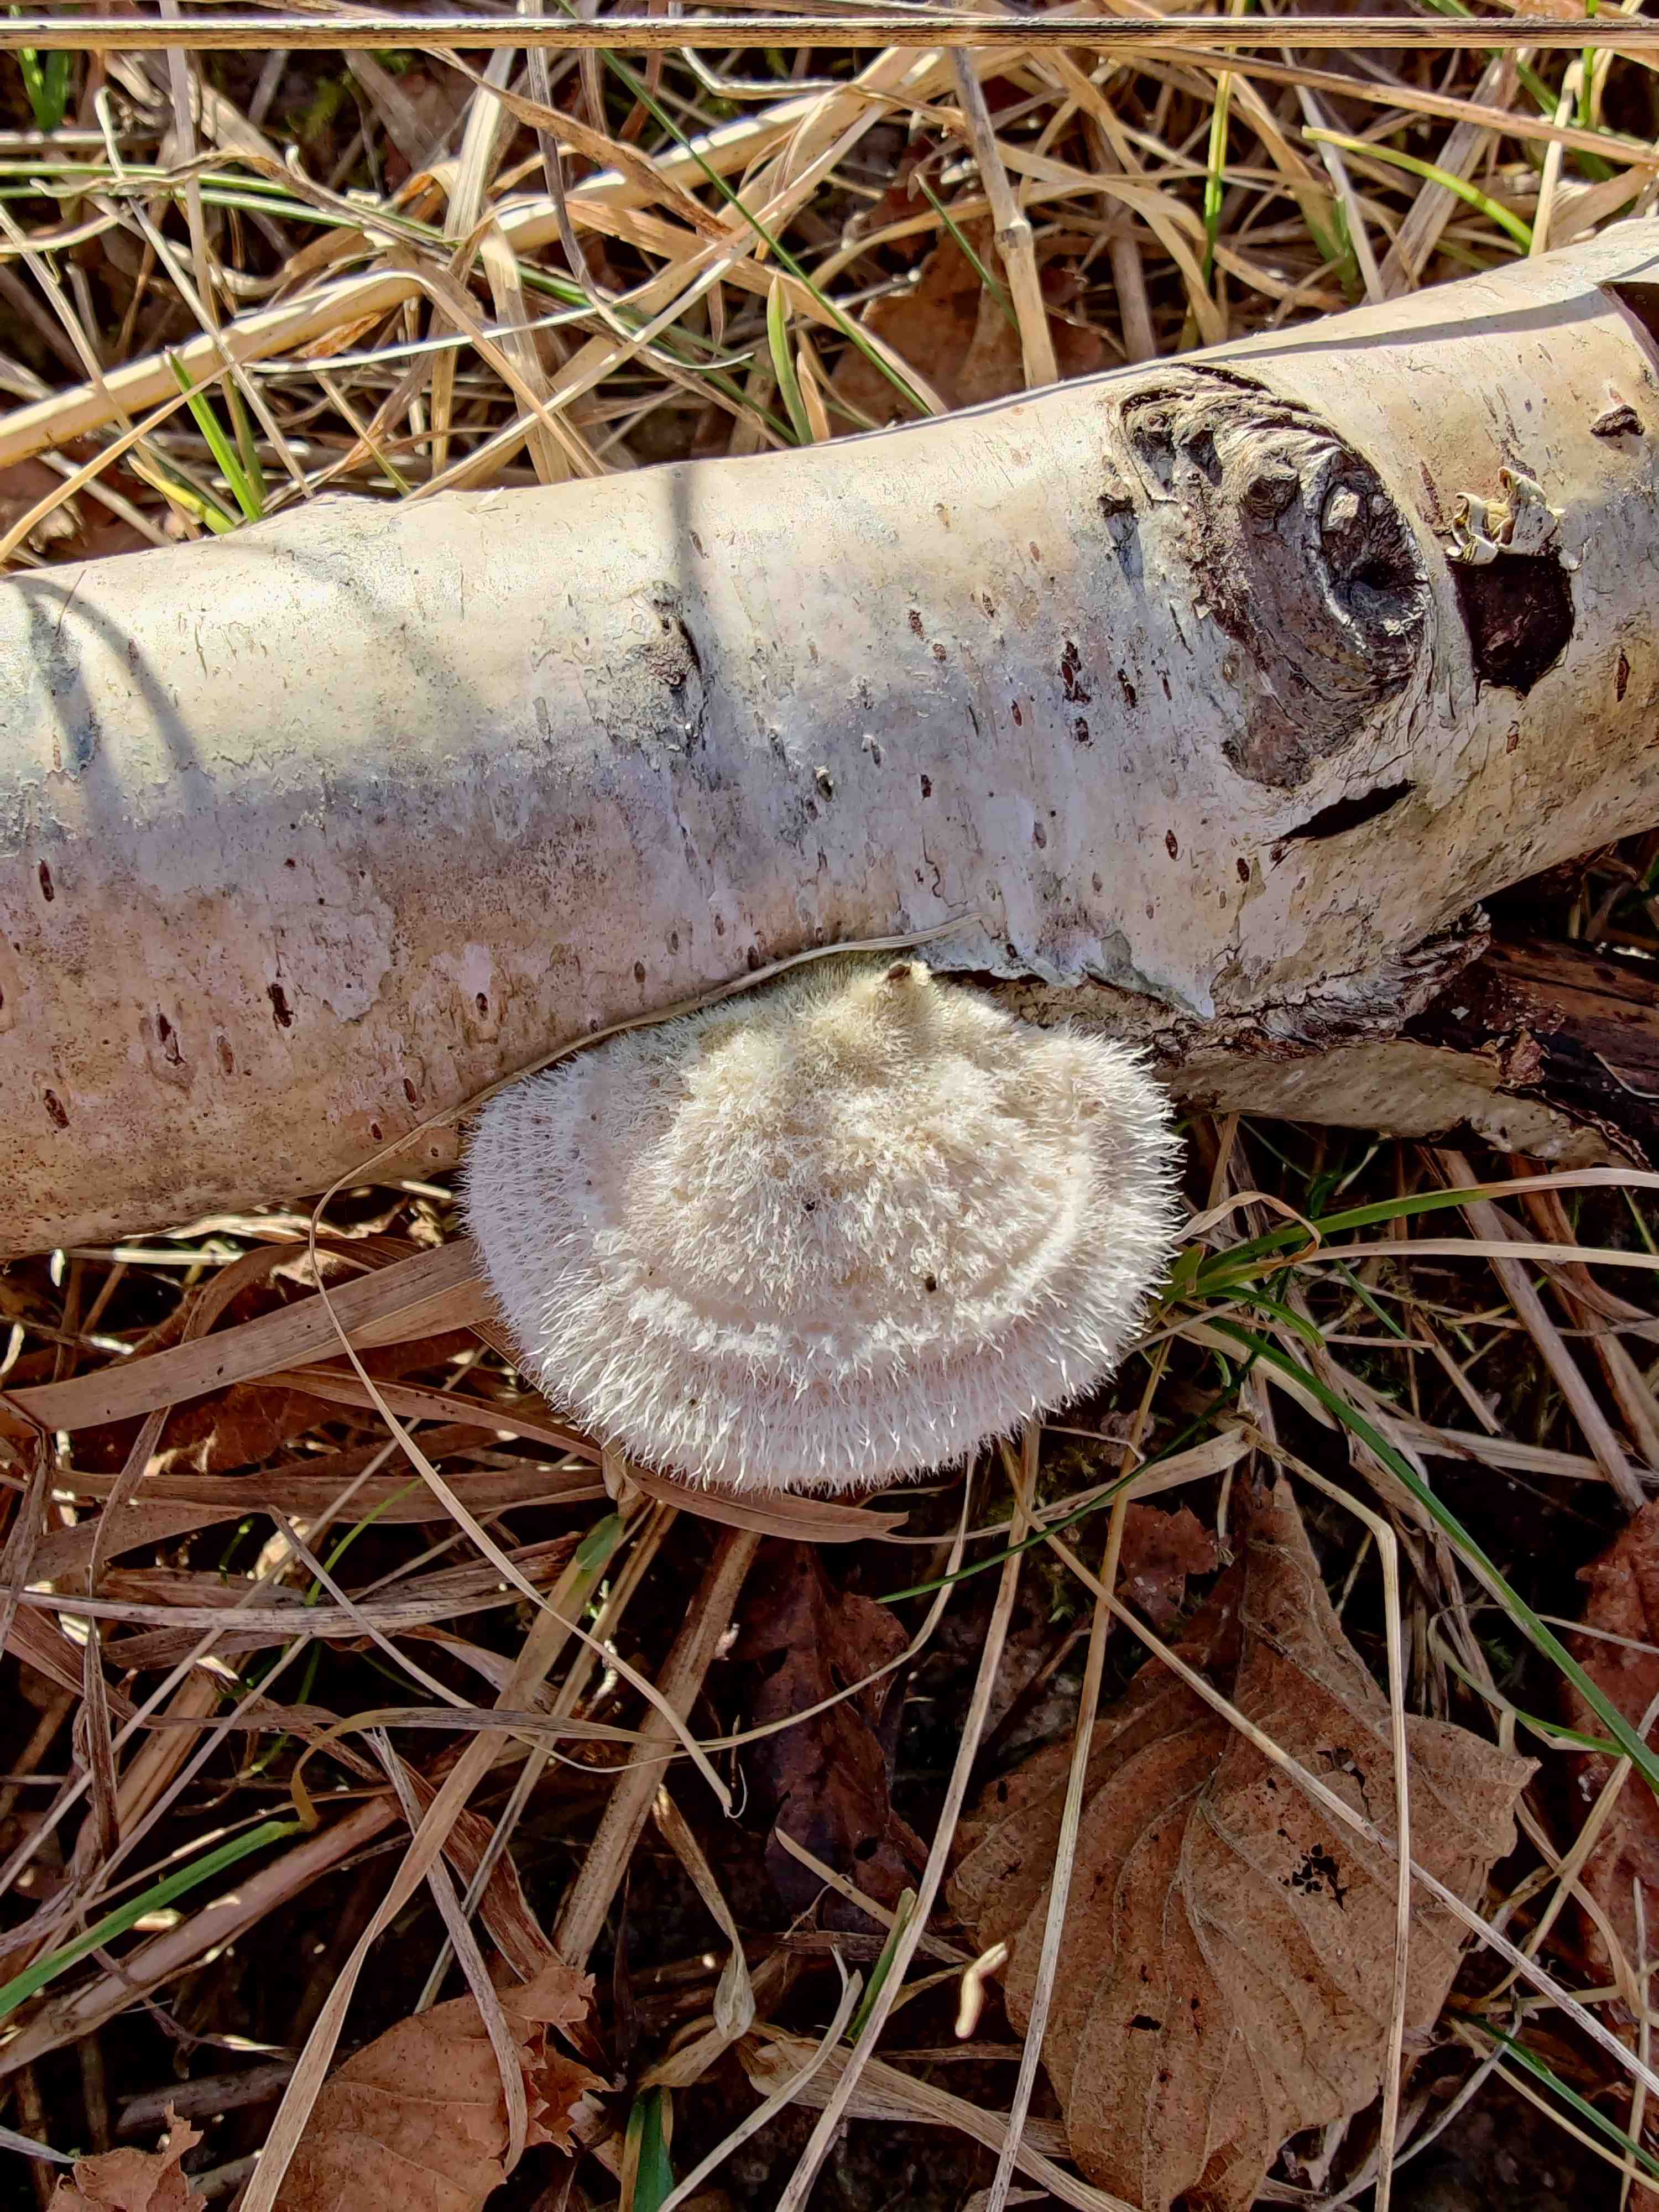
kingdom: Fungi
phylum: Basidiomycota
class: Agaricomycetes
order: Polyporales
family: Polyporaceae
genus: Trametes
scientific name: Trametes hirsuta
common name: håret læderporesvamp
